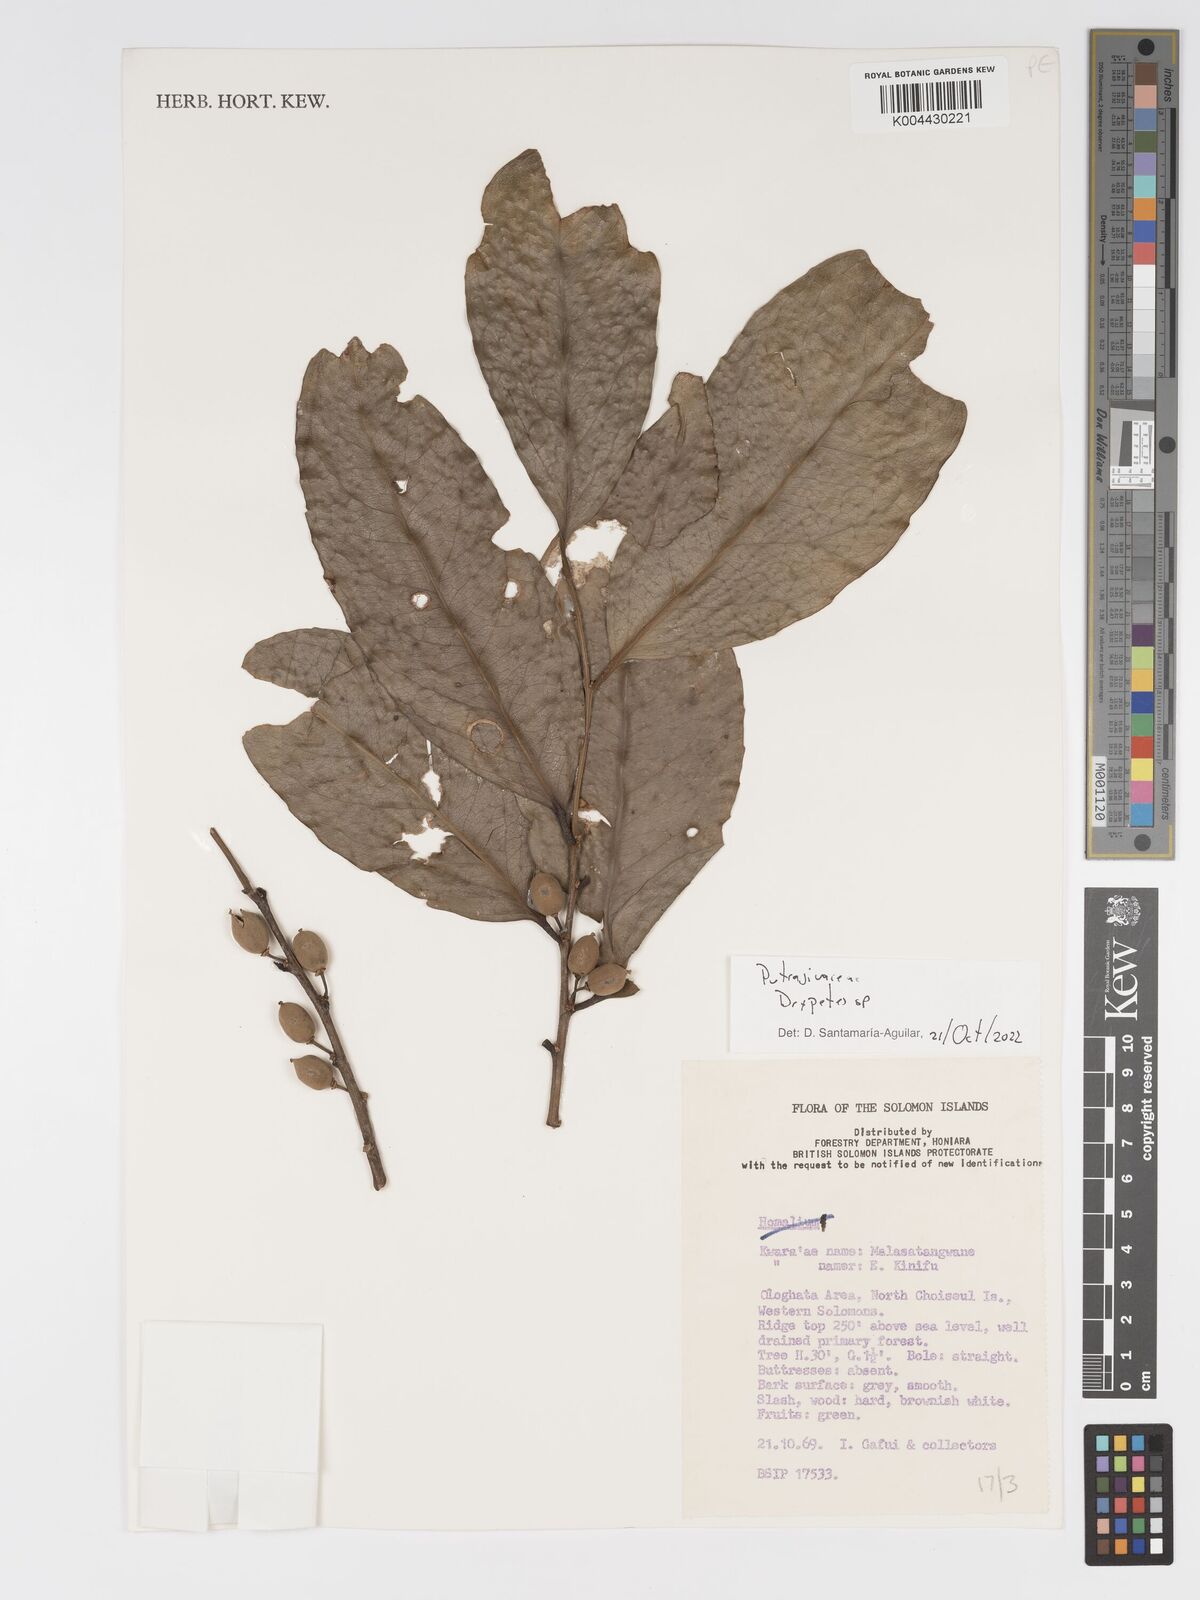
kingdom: Plantae
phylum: Tracheophyta
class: Magnoliopsida
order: Malpighiales
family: Putranjivaceae
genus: Drypetes
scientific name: Drypetes
